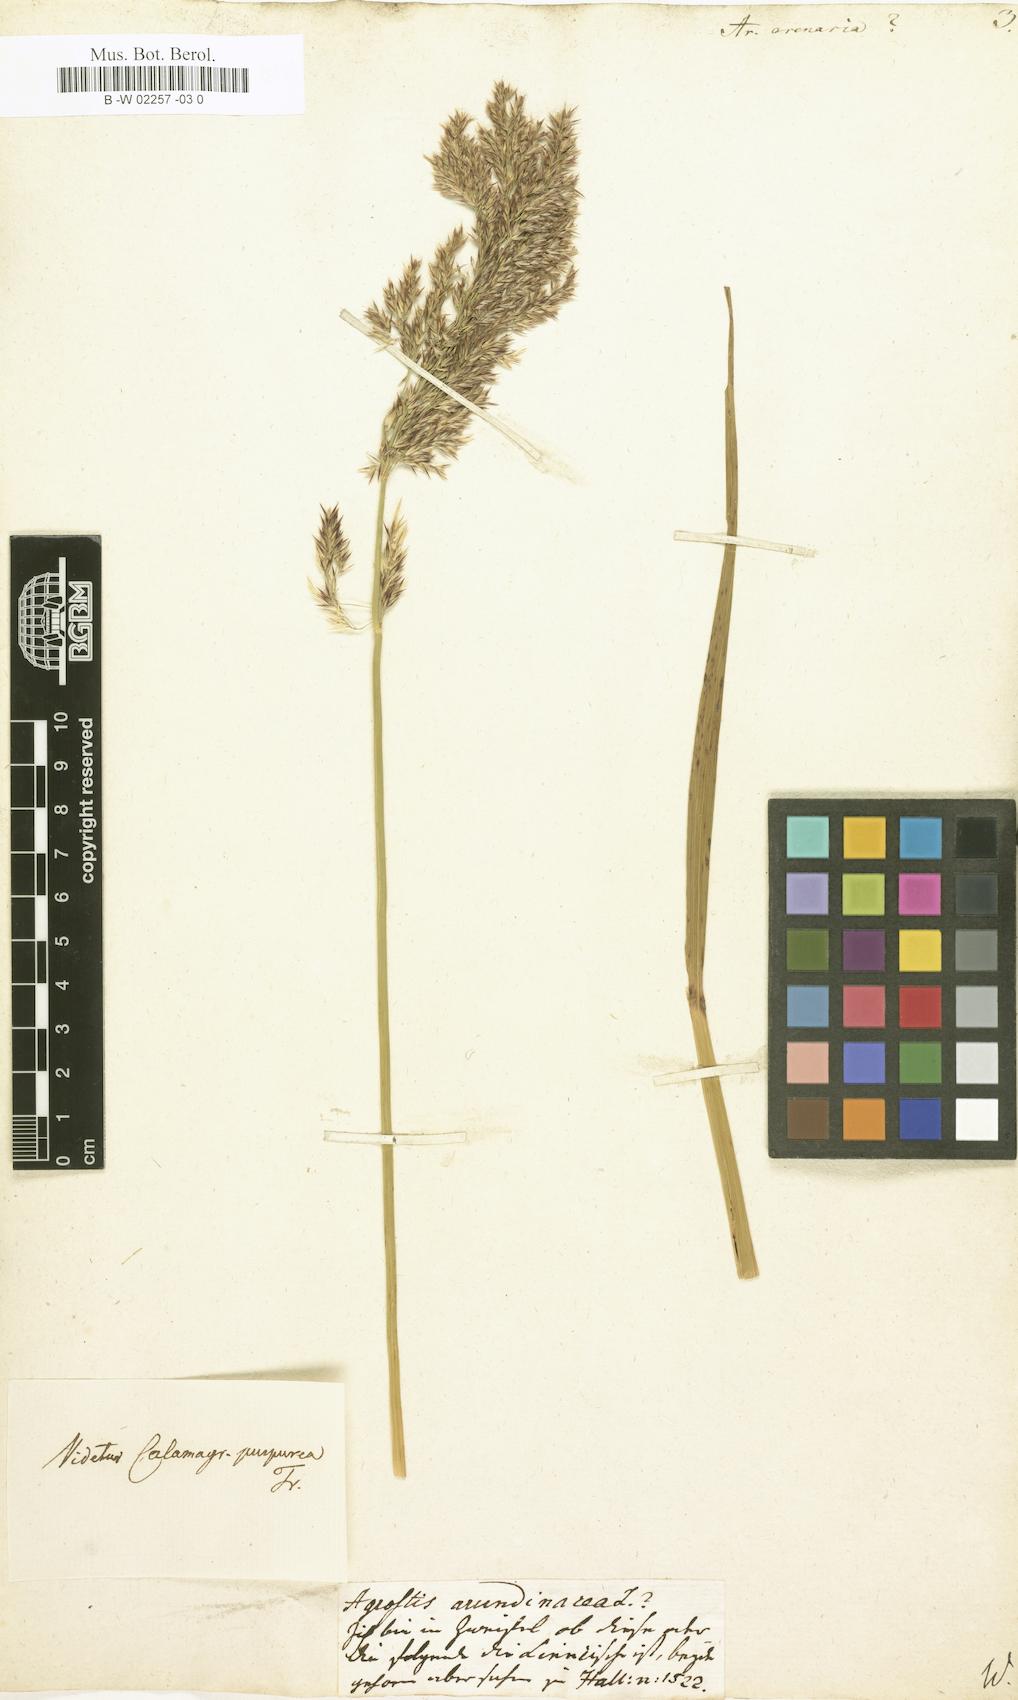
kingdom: Plantae
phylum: Tracheophyta
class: Liliopsida
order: Poales
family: Poaceae
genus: Arundo
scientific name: Arundo arenaria
